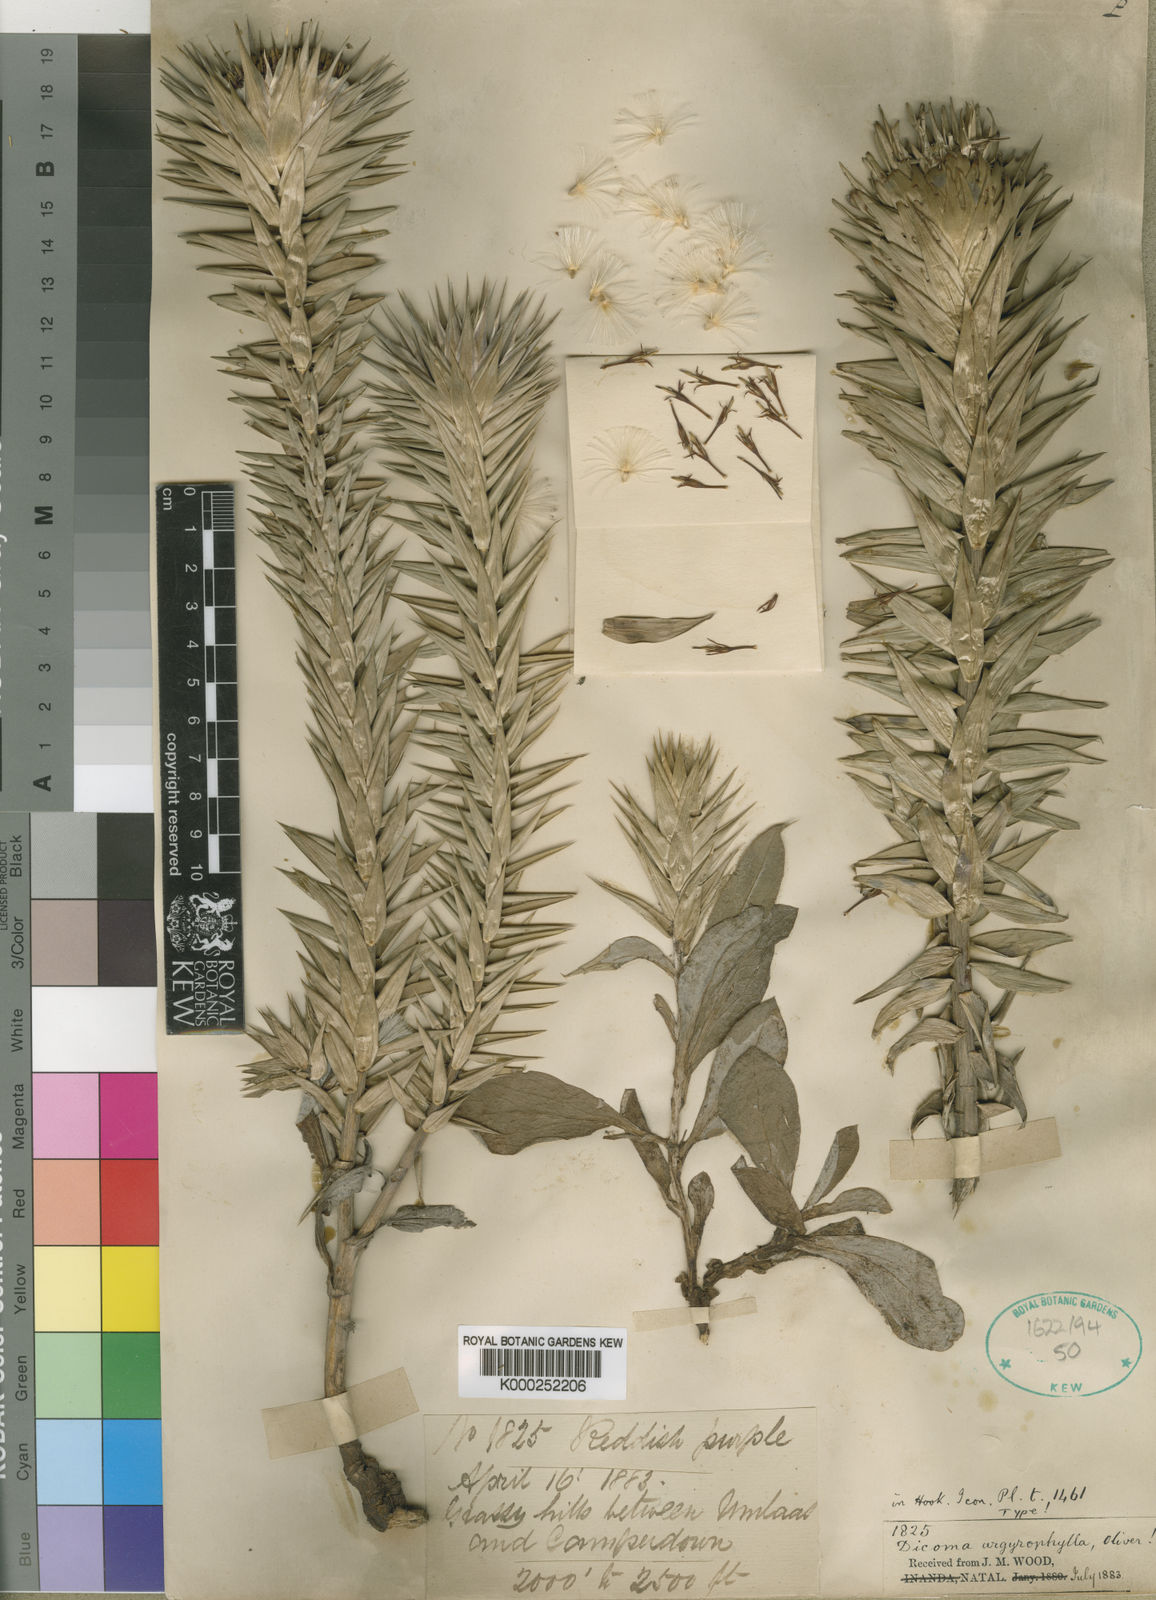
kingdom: Plantae
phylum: Tracheophyta
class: Magnoliopsida
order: Asterales
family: Asteraceae
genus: Macledium
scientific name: Macledium zeyheri
